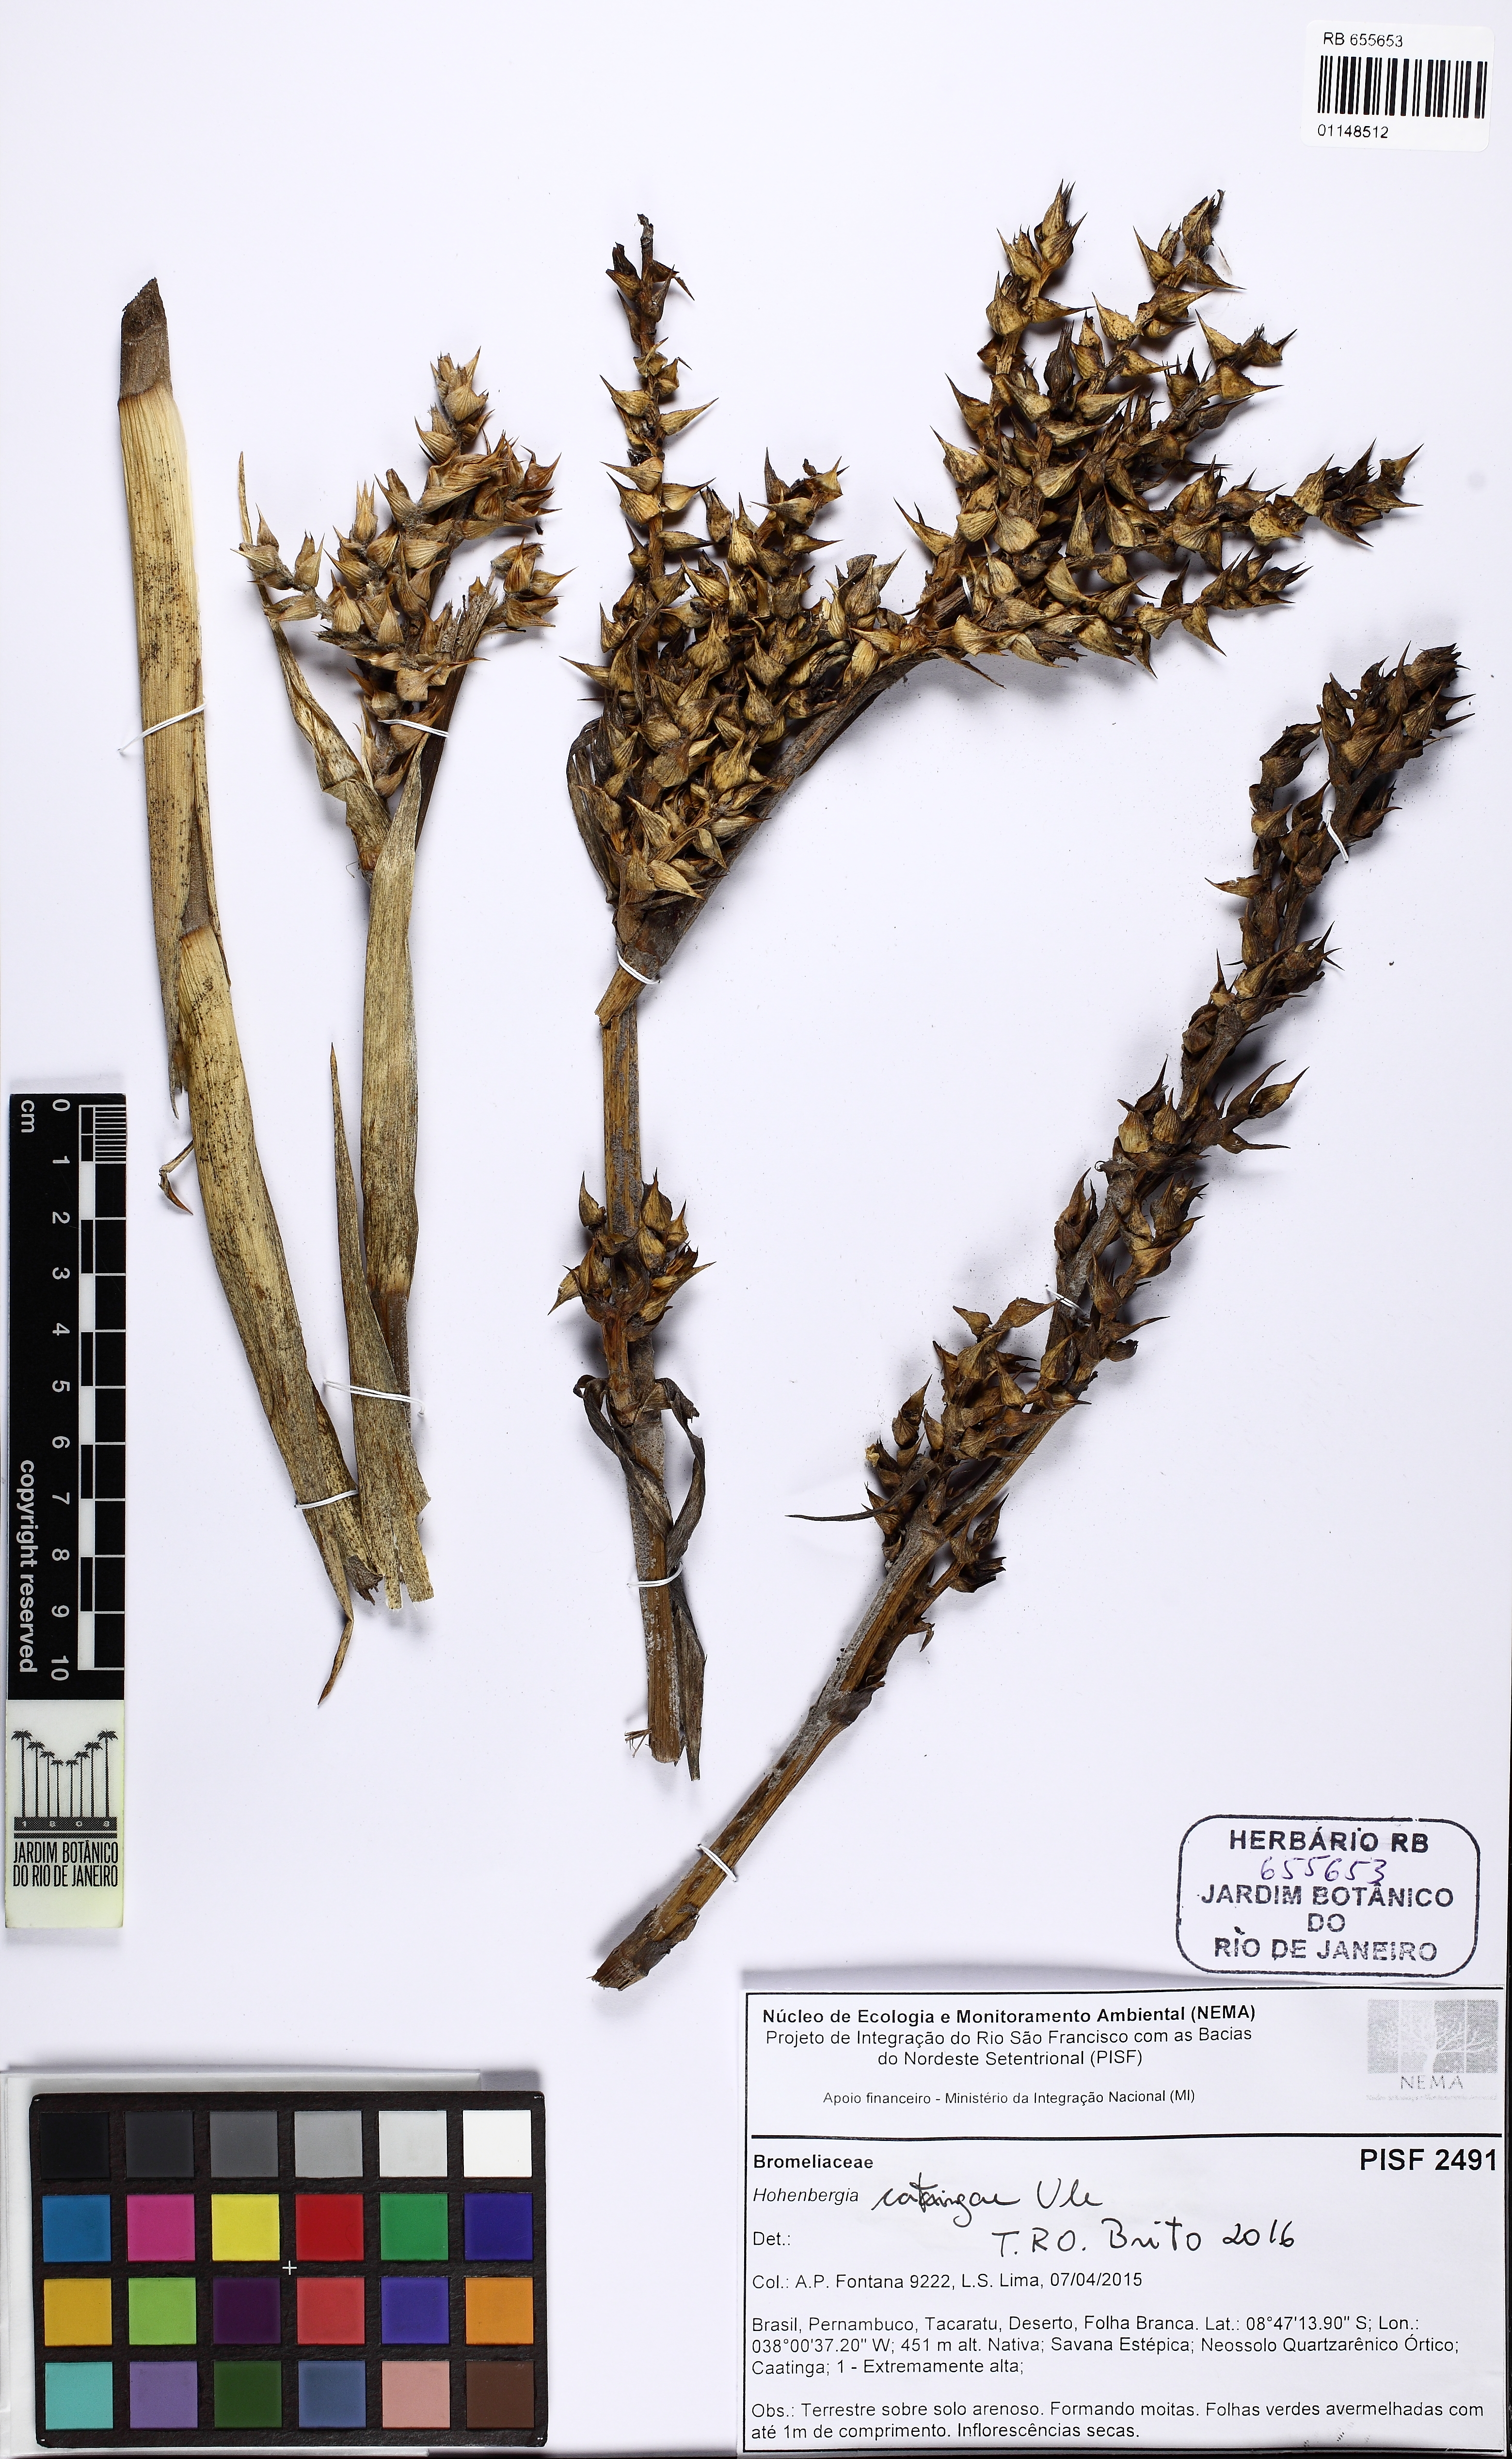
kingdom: Plantae
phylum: Tracheophyta
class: Liliopsida
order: Poales
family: Bromeliaceae
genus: Hohenbergia
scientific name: Hohenbergia catingae
